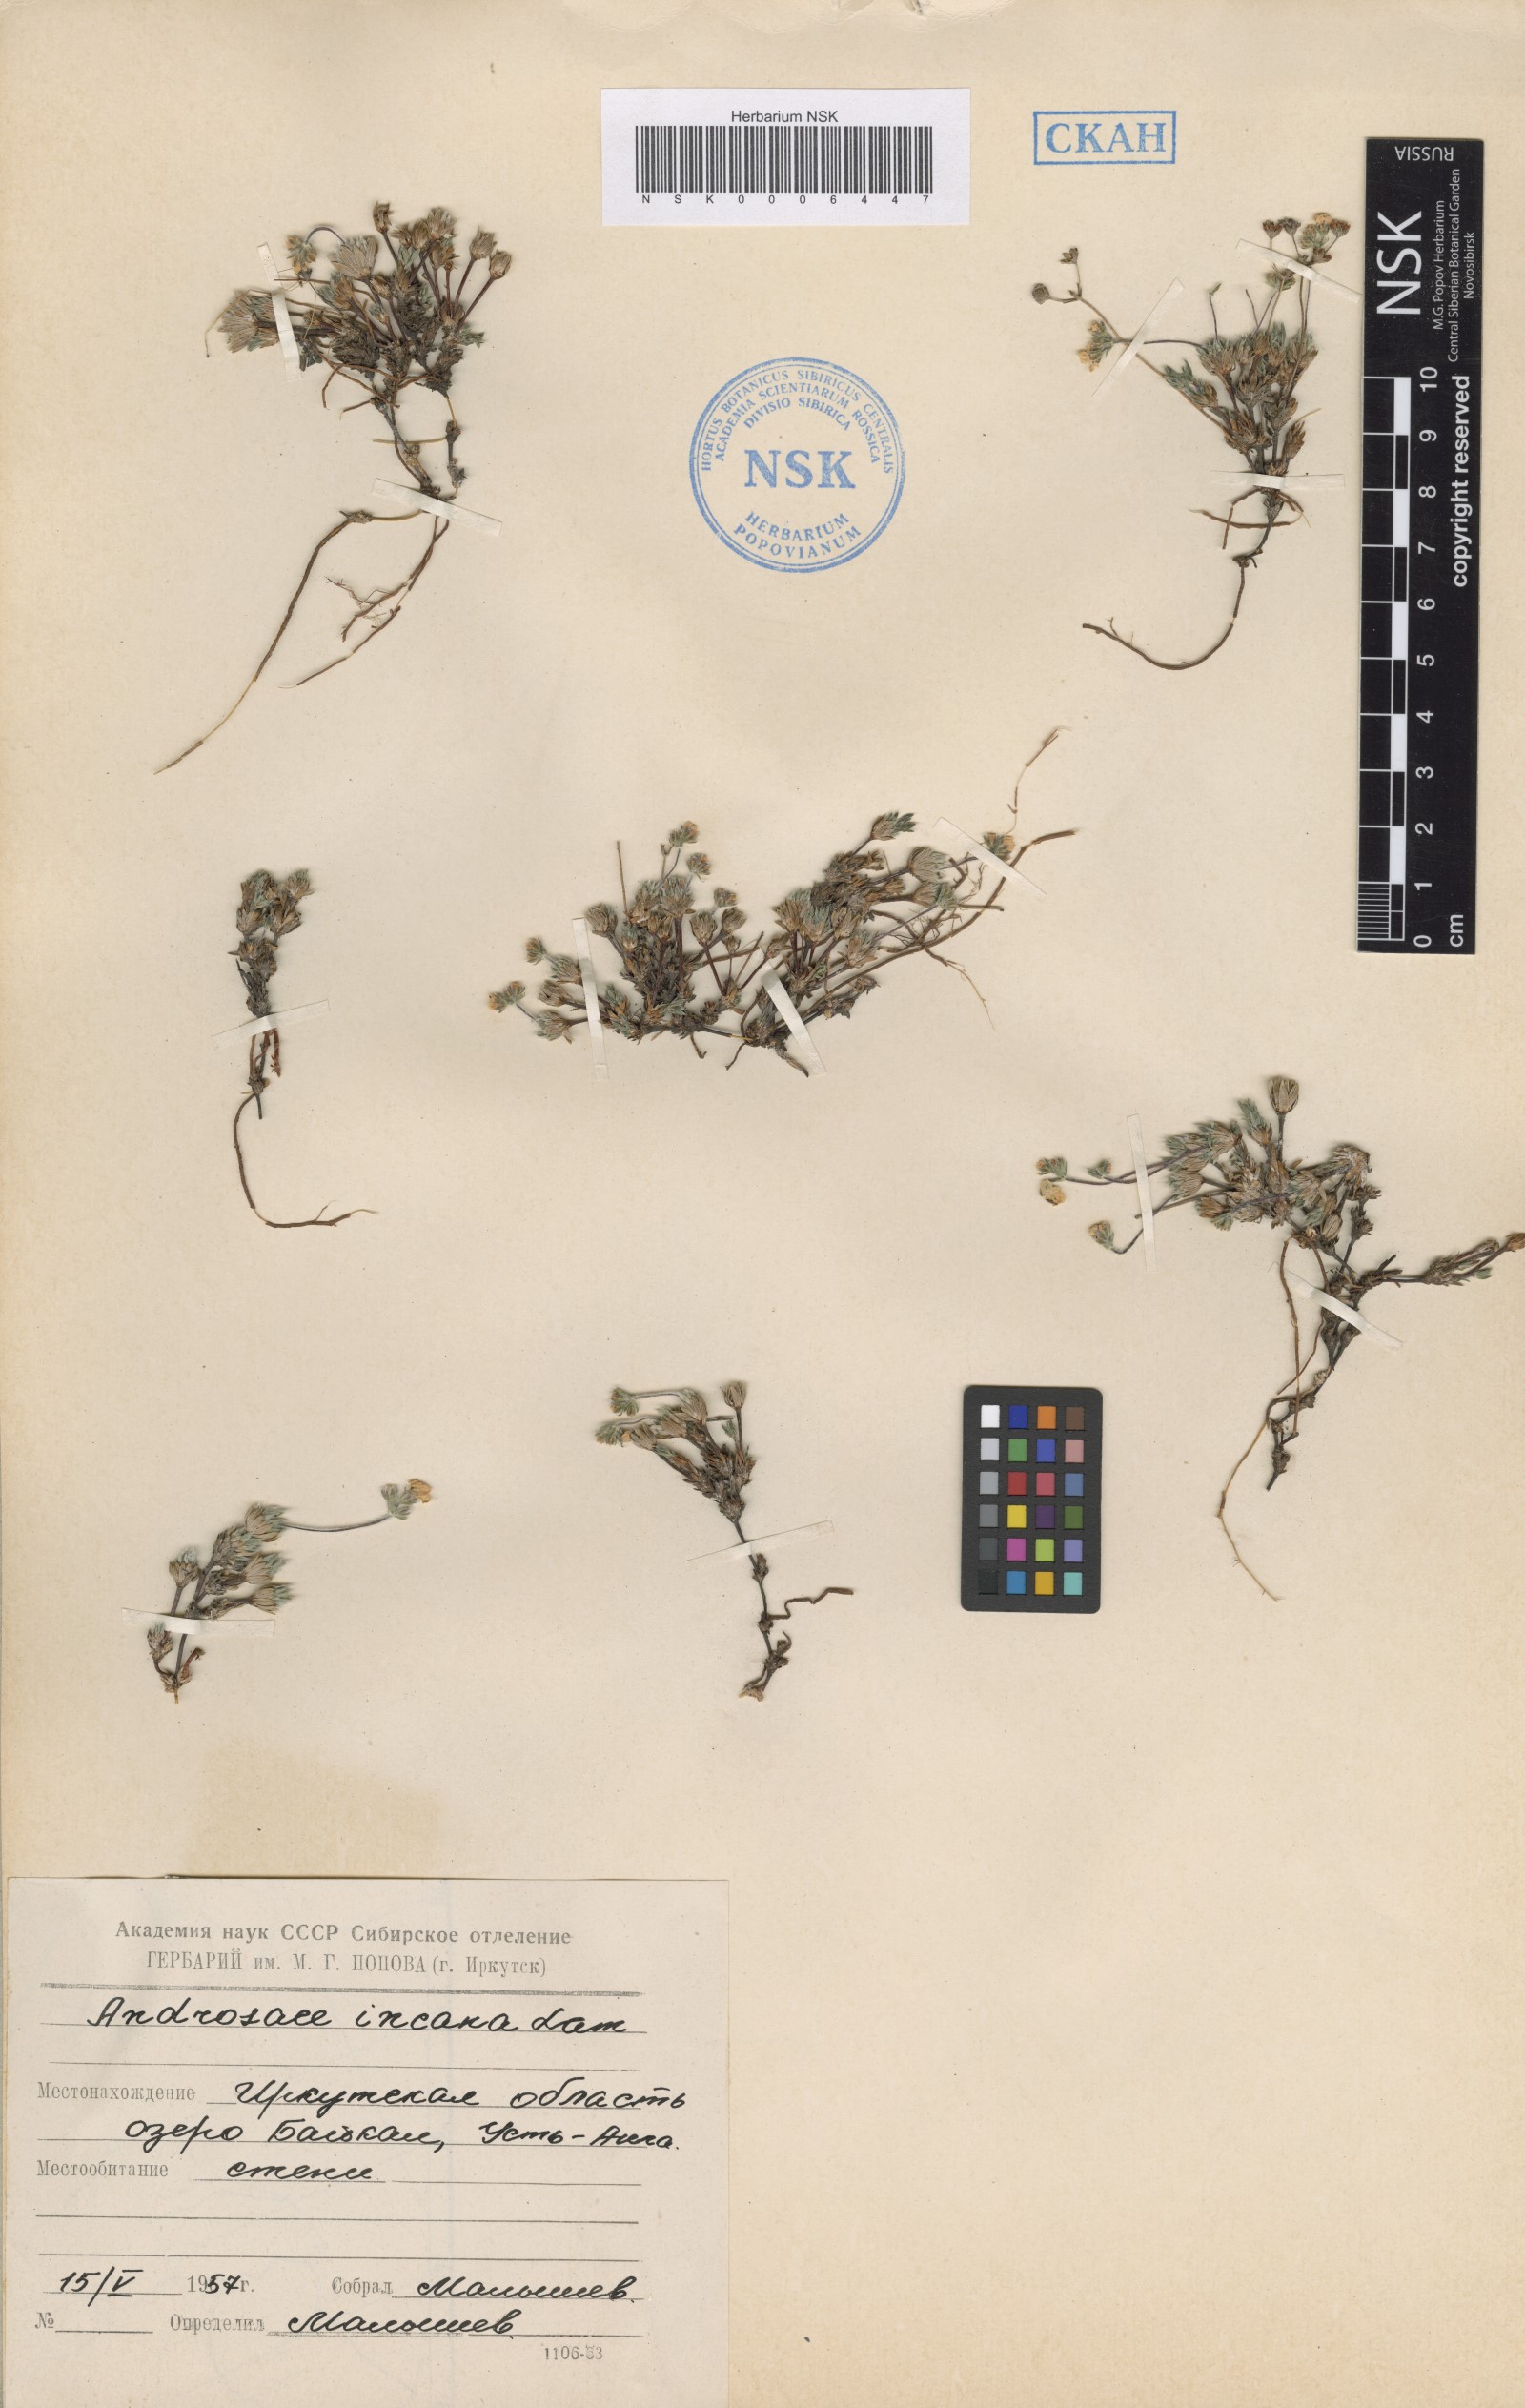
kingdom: Plantae
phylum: Tracheophyta
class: Magnoliopsida
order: Ericales
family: Primulaceae
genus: Androsace
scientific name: Androsace incana
